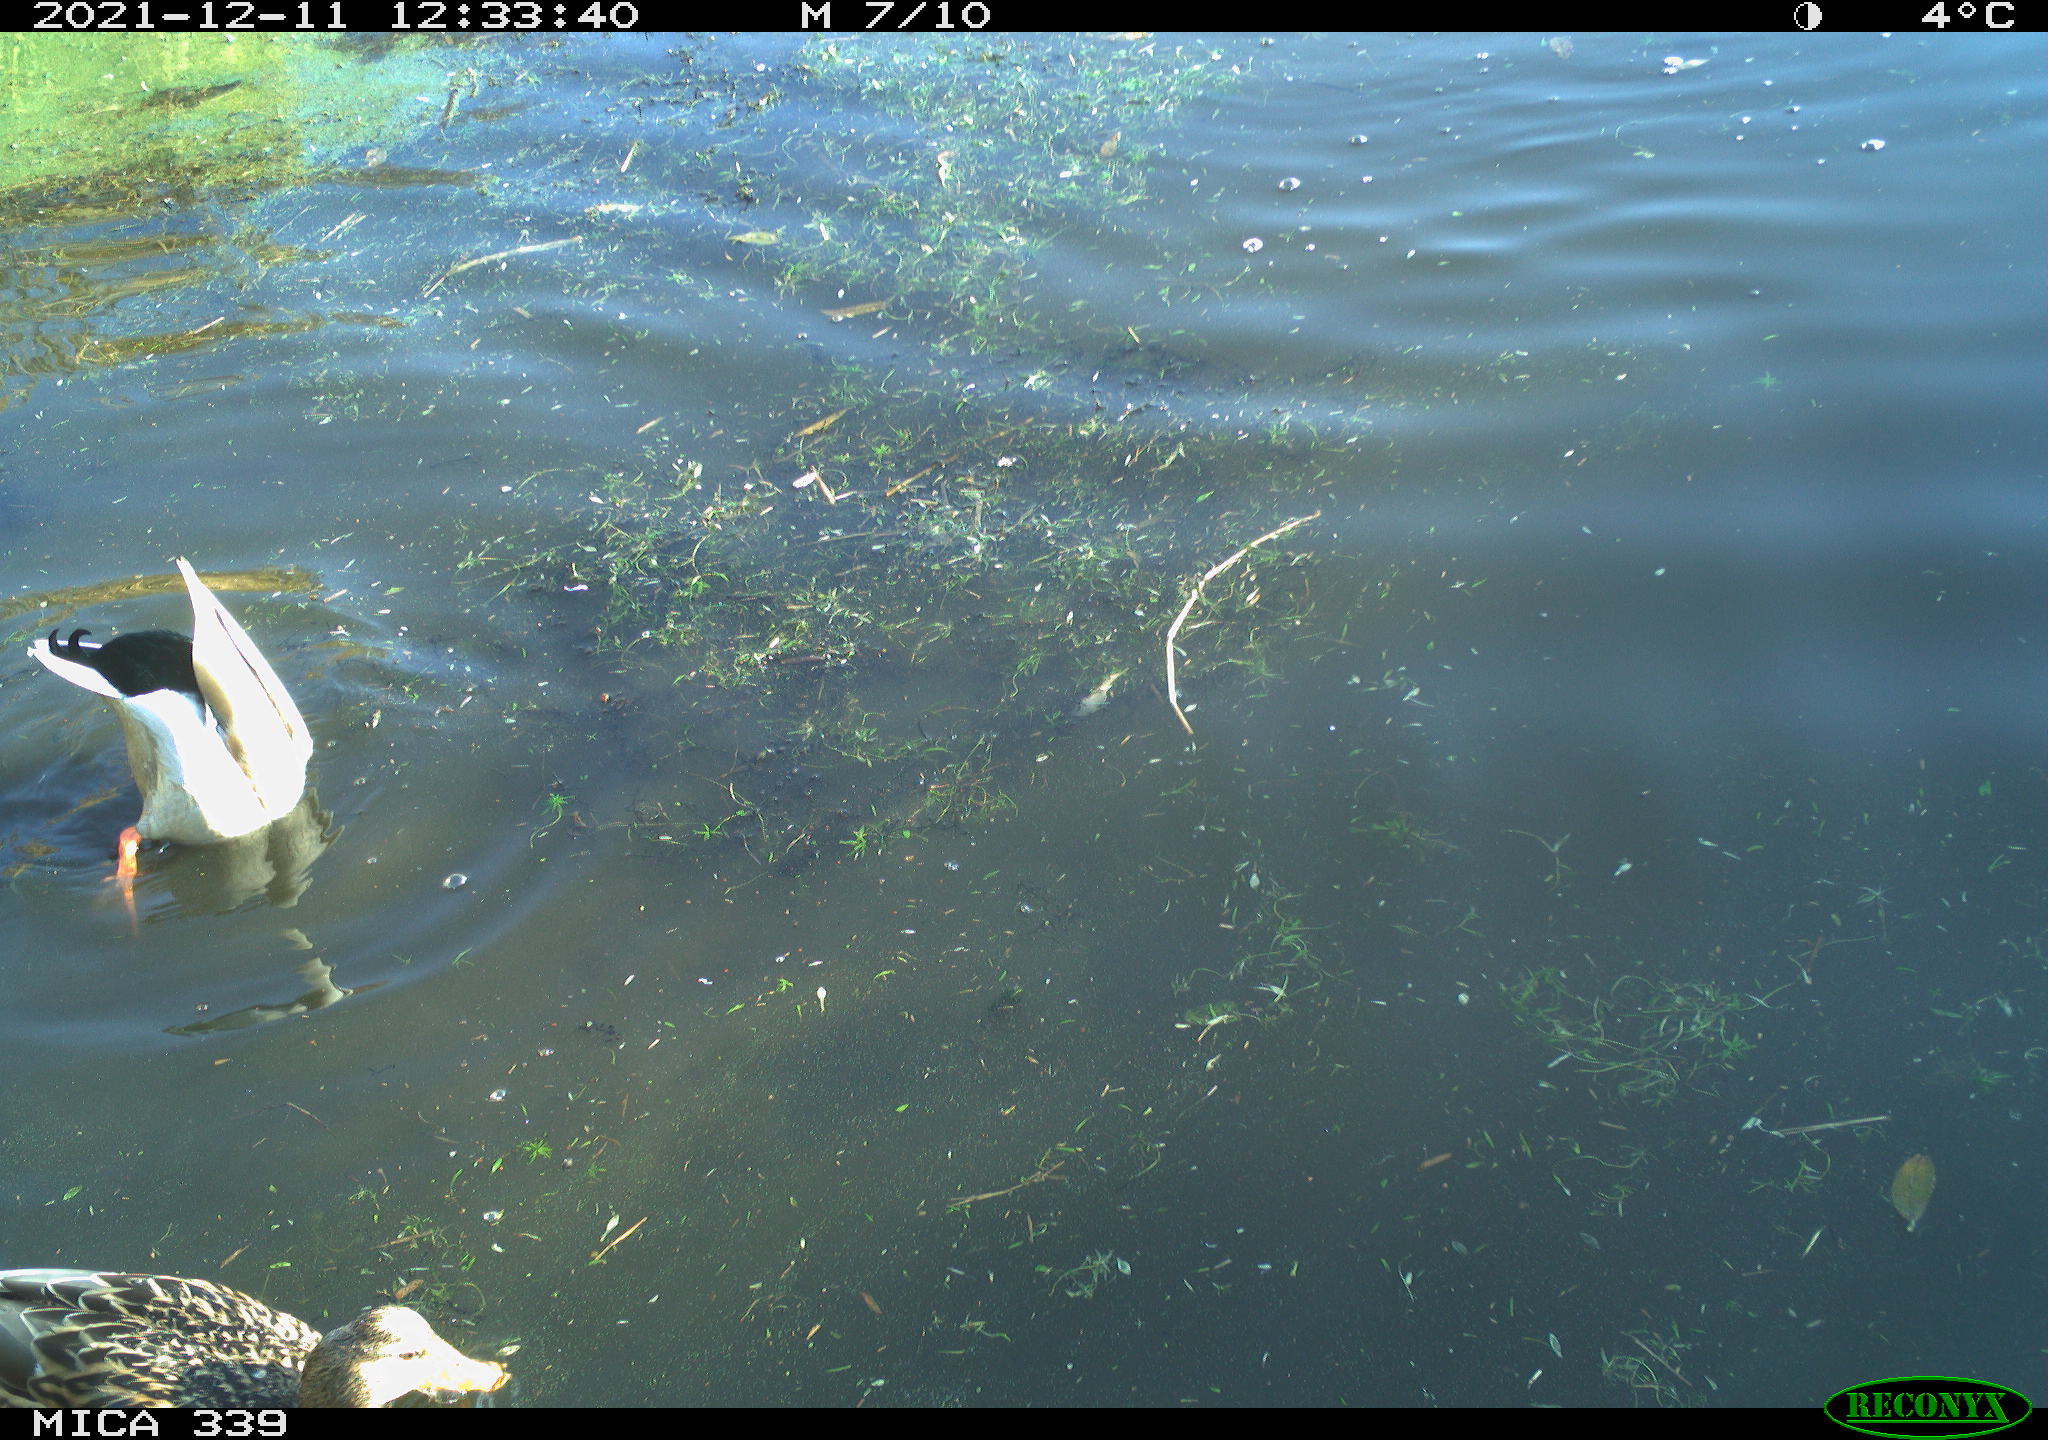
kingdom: Animalia
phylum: Chordata
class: Aves
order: Anseriformes
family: Anatidae
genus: Anas
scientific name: Anas platyrhynchos
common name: Mallard
